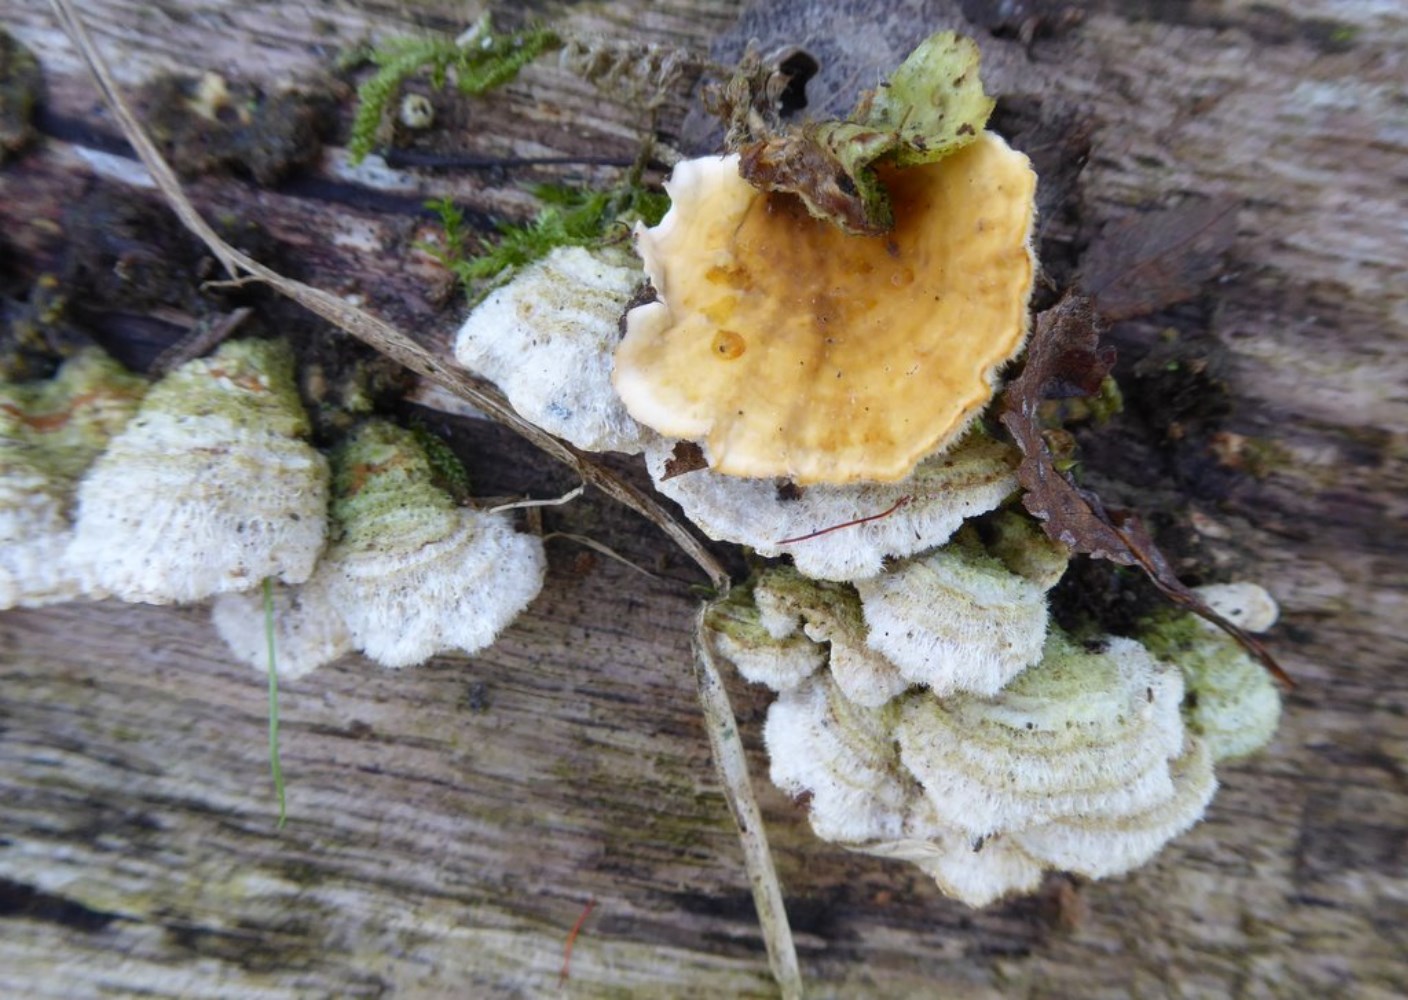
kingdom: Fungi
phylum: Basidiomycota
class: Agaricomycetes
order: Russulales
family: Stereaceae
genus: Stereum
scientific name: Stereum hirsutum
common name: håret lædersvamp
